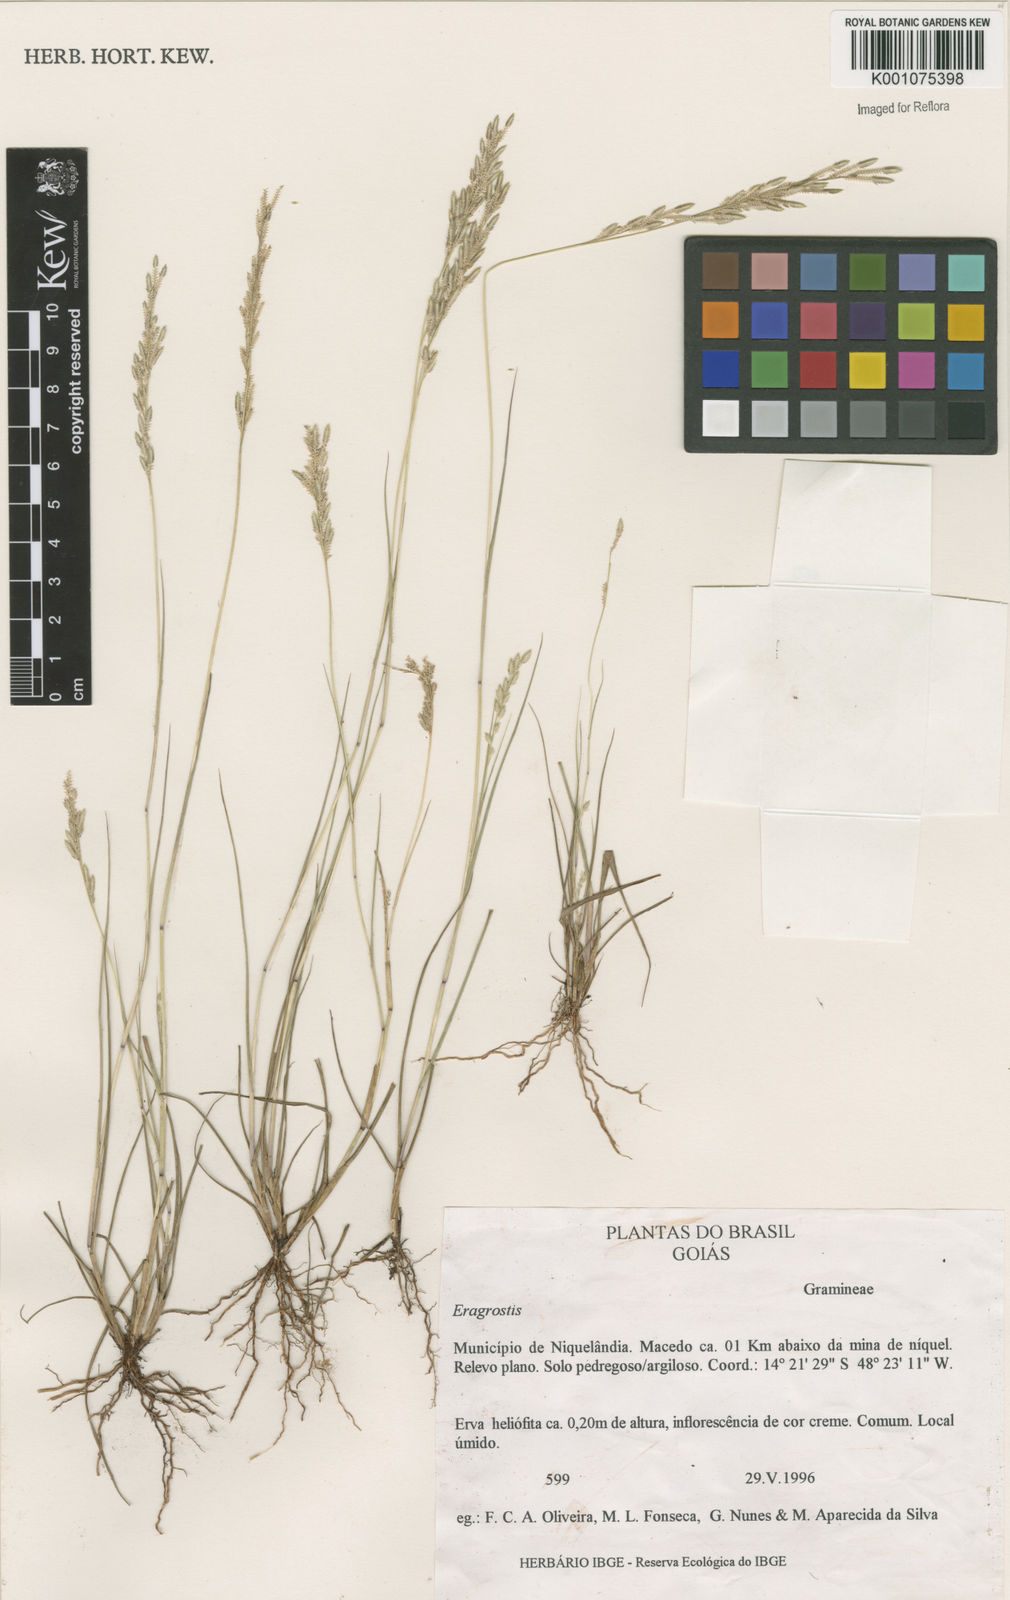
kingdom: Plantae
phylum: Tracheophyta
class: Liliopsida
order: Poales
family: Poaceae
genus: Eragrostis
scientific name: Eragrostis rufescens
